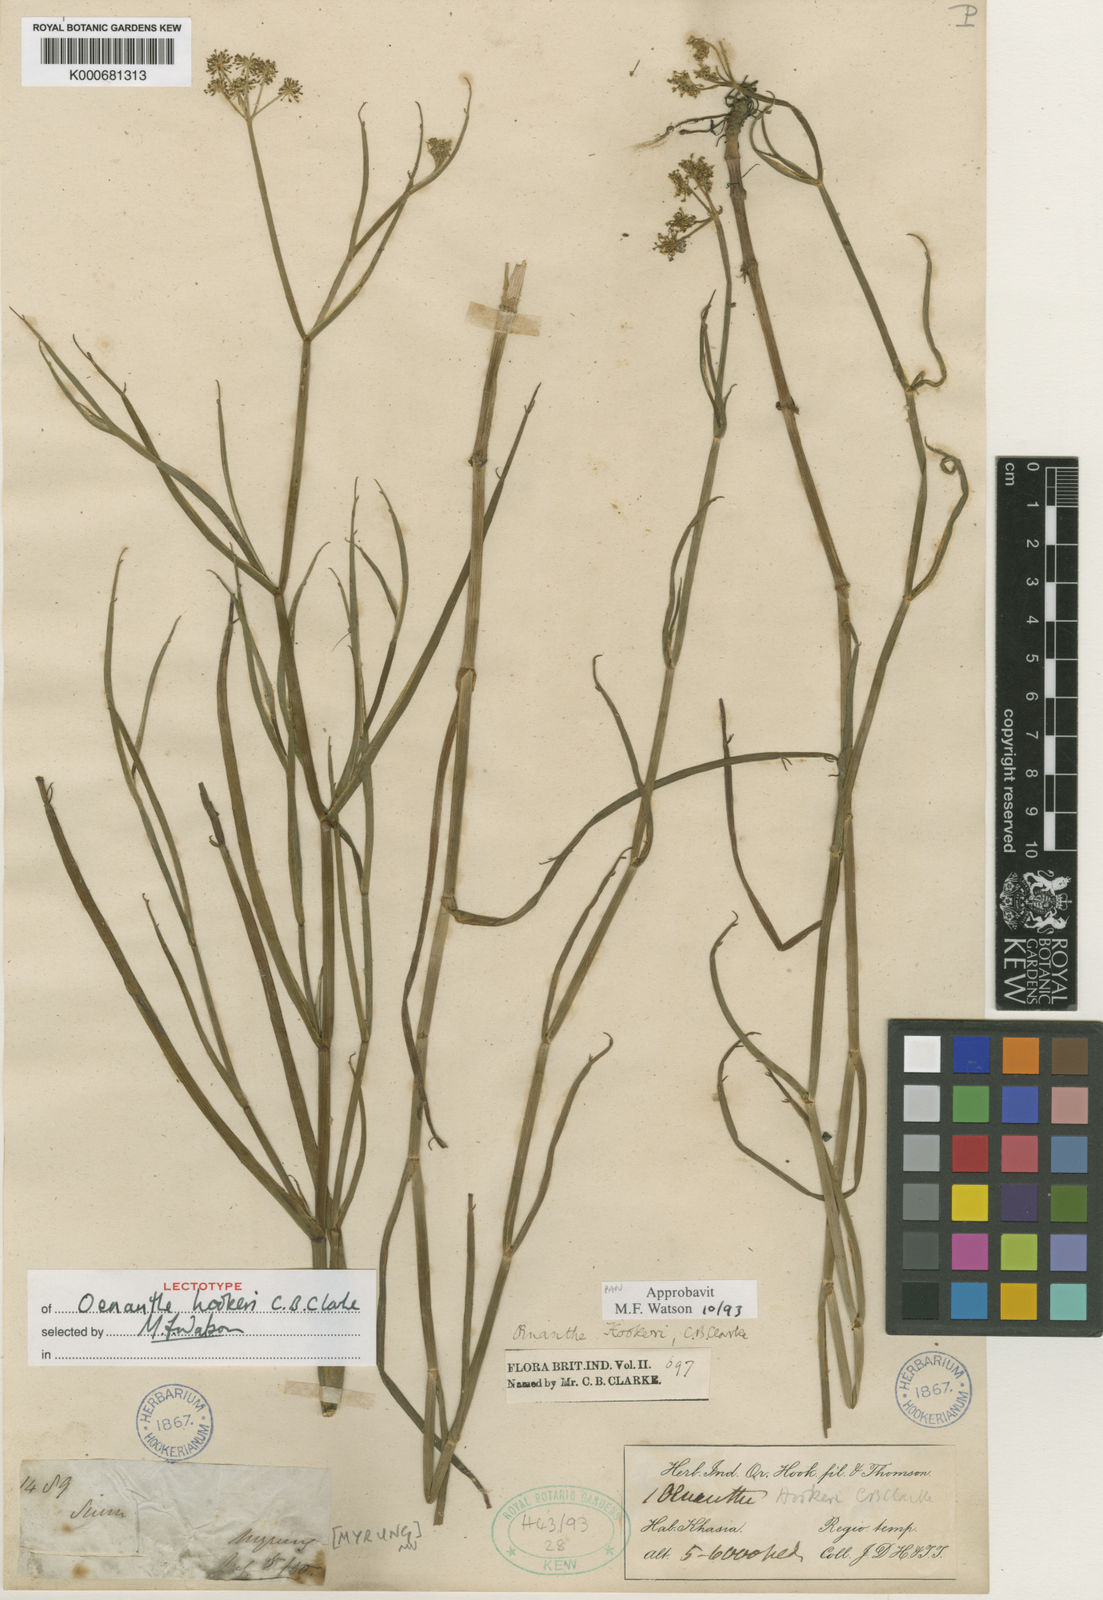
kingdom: Plantae
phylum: Tracheophyta
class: Magnoliopsida
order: Apiales
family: Apiaceae
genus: Oenanthe
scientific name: Oenanthe hookeri
